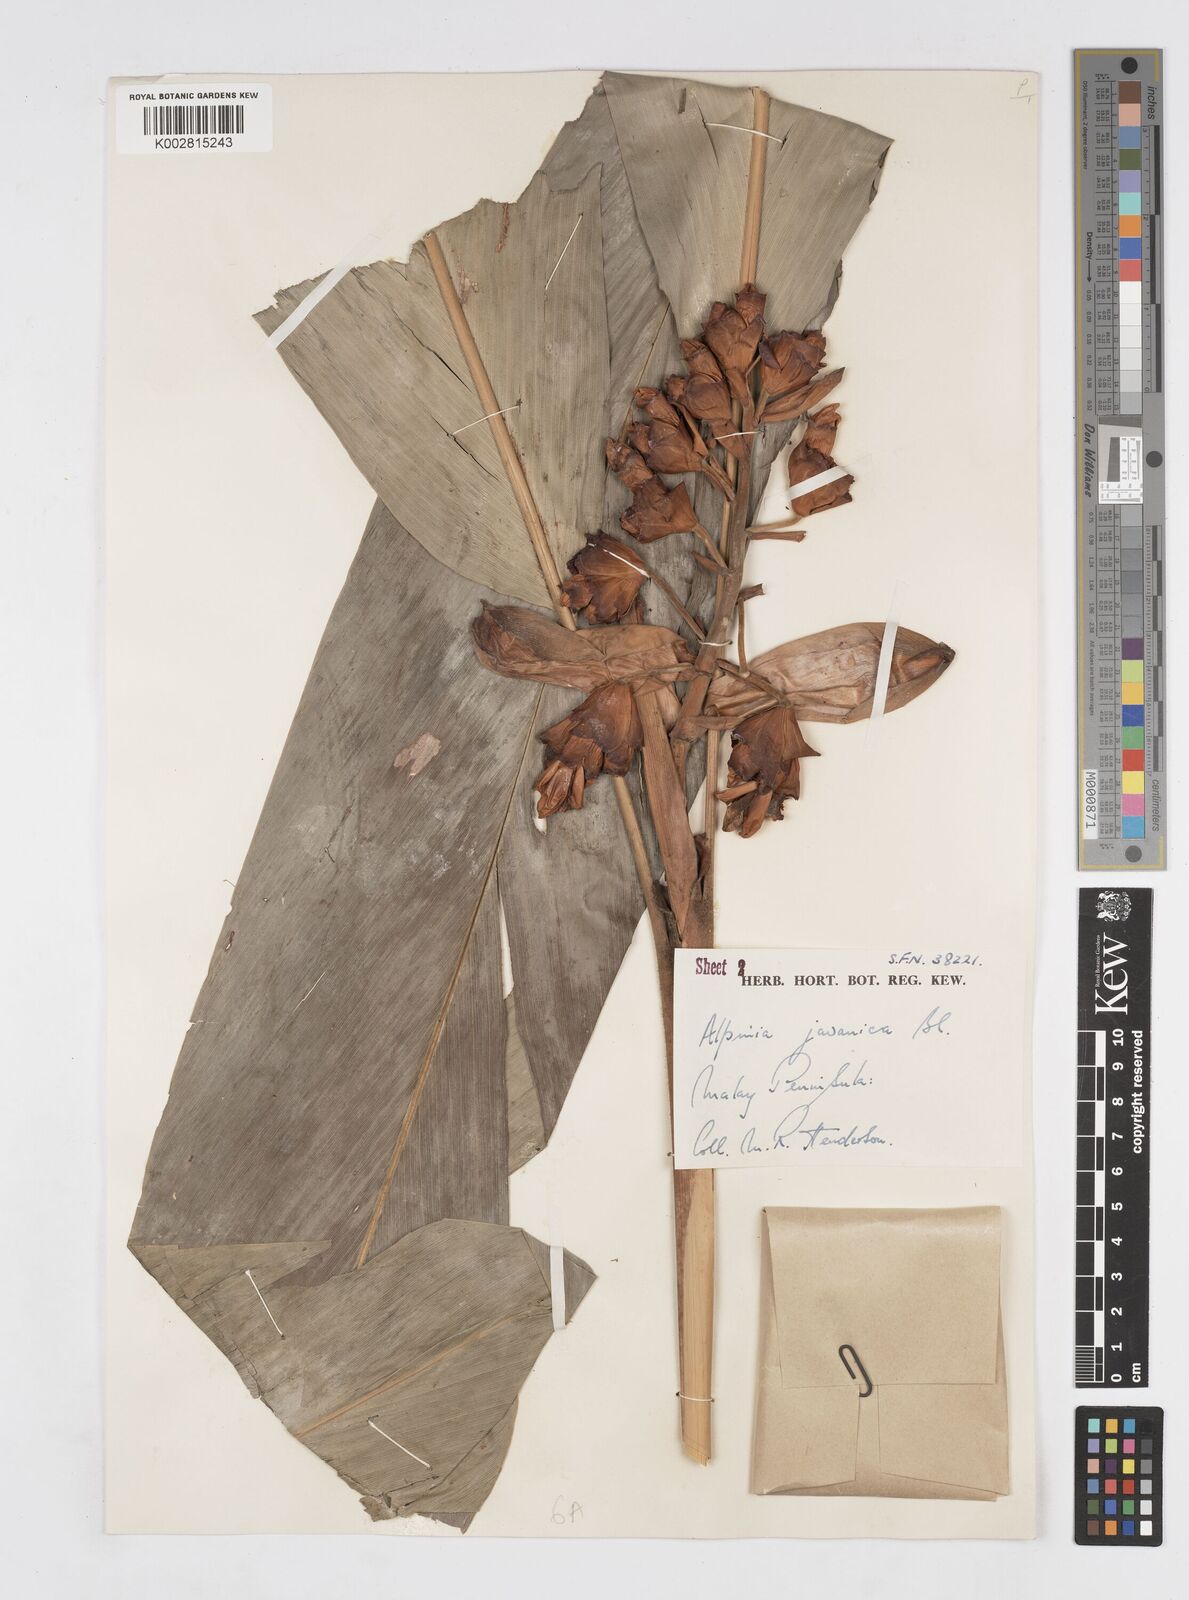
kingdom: Plantae
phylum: Tracheophyta
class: Liliopsida
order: Zingiberales
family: Zingiberaceae
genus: Alpinia
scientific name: Alpinia javanica
